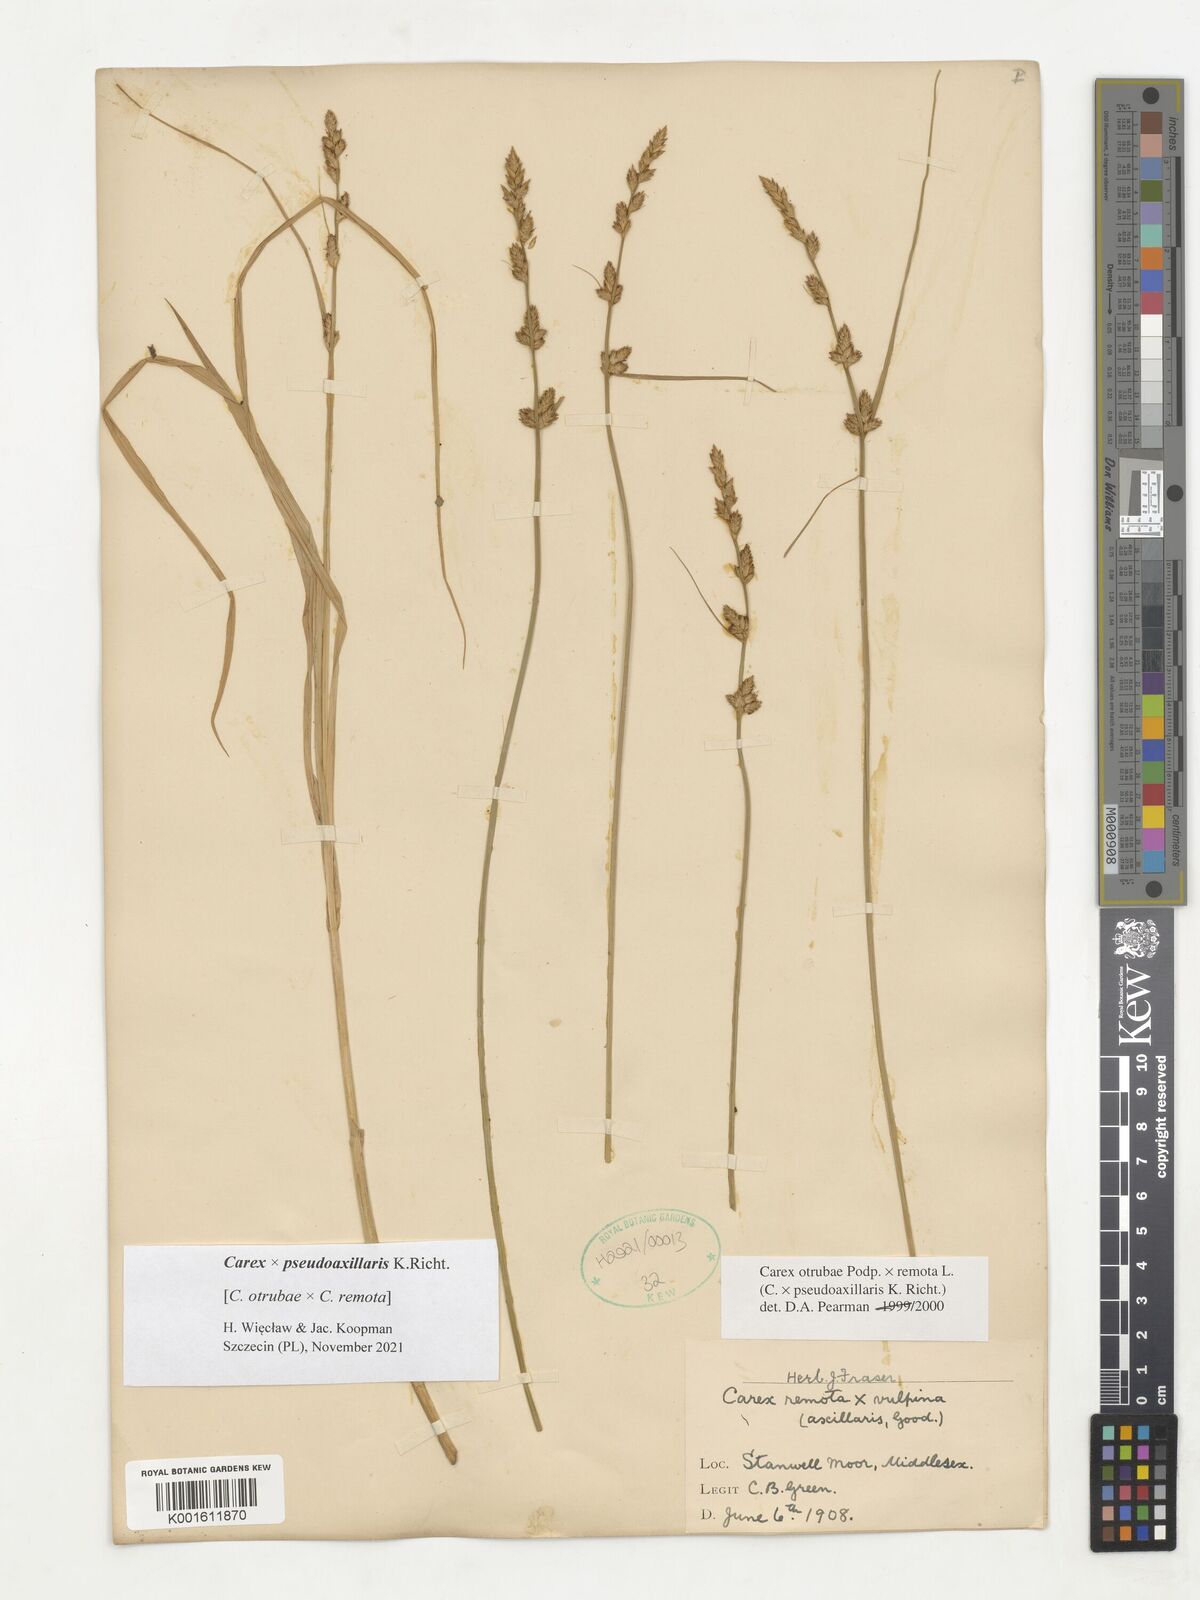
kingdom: Plantae
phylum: Tracheophyta
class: Liliopsida
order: Poales
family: Cyperaceae
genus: Carex
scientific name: Carex pseudoaxillaris
